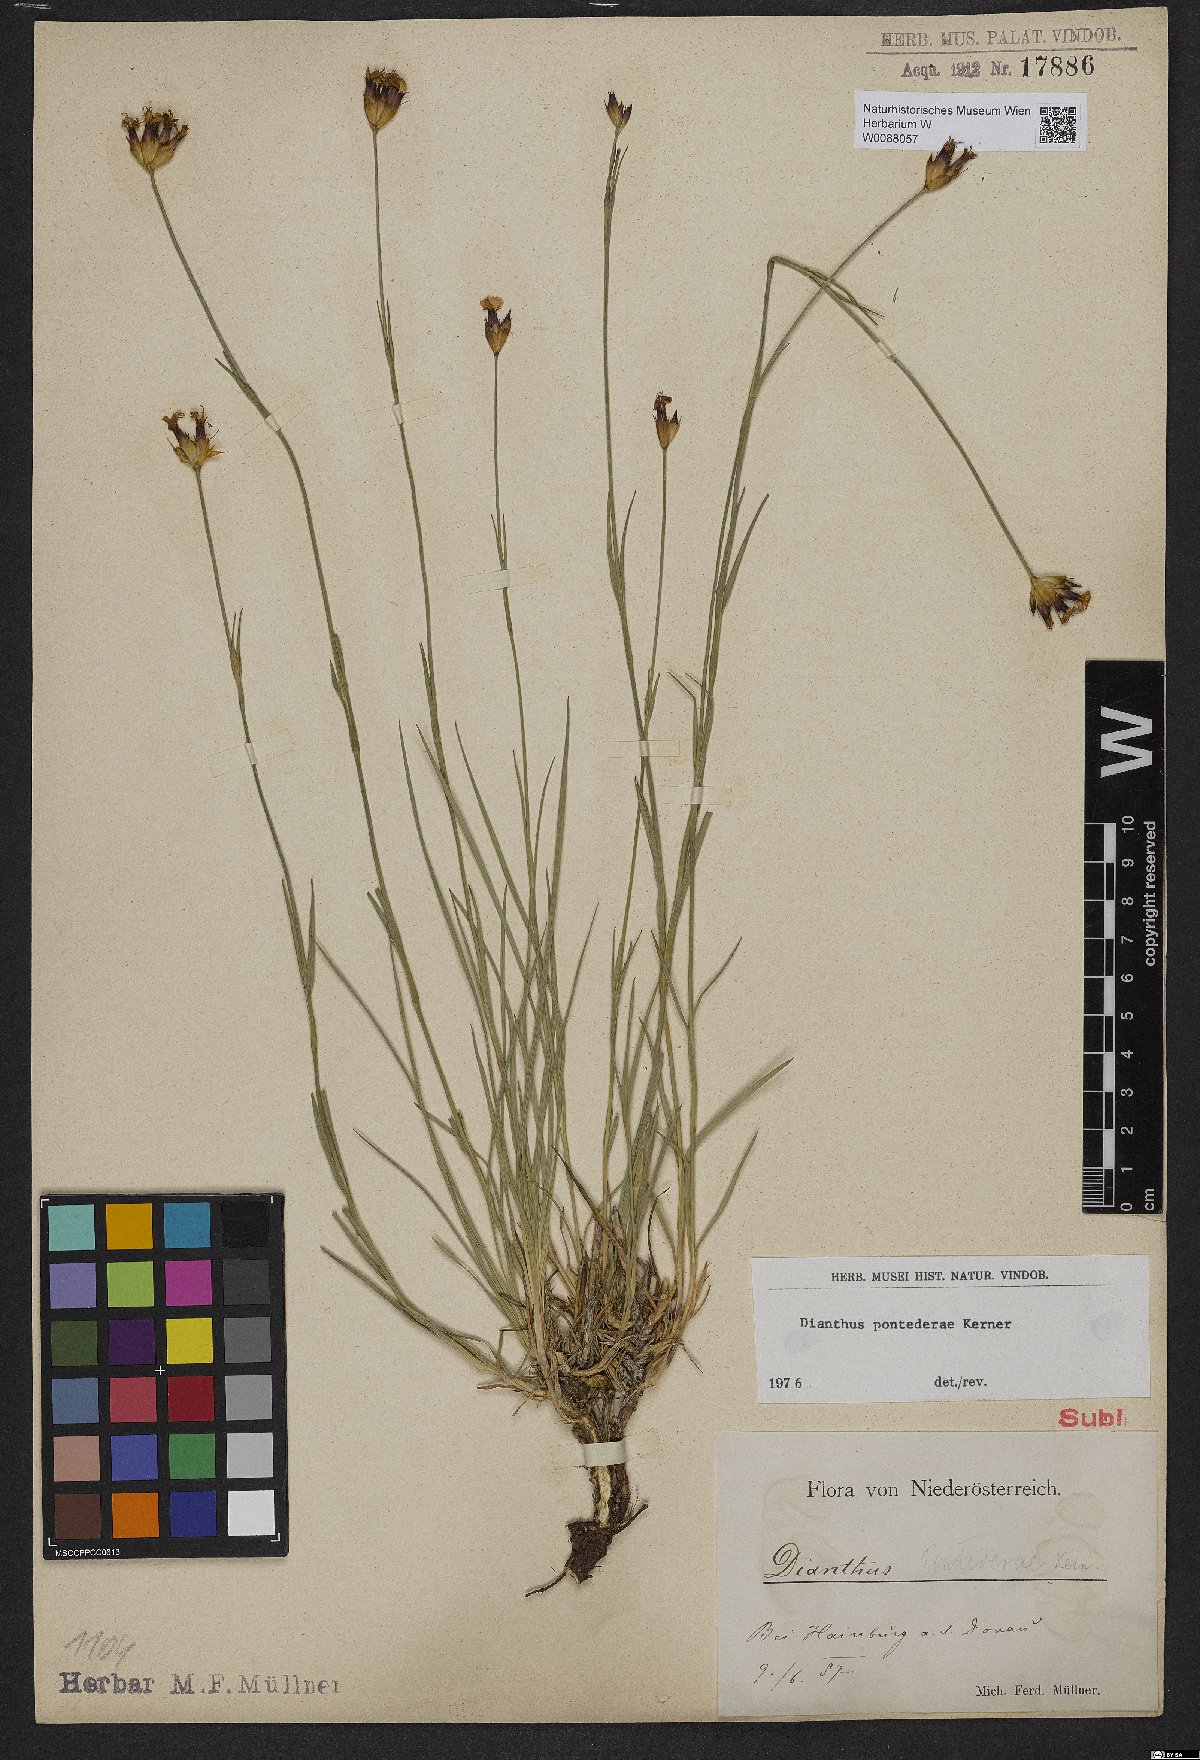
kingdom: Plantae
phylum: Tracheophyta
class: Magnoliopsida
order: Caryophyllales
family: Caryophyllaceae
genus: Dianthus
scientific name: Dianthus pontederae
